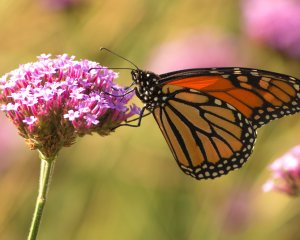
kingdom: Animalia
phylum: Arthropoda
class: Insecta
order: Lepidoptera
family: Nymphalidae
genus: Danaus
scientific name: Danaus plexippus
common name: Monarch
